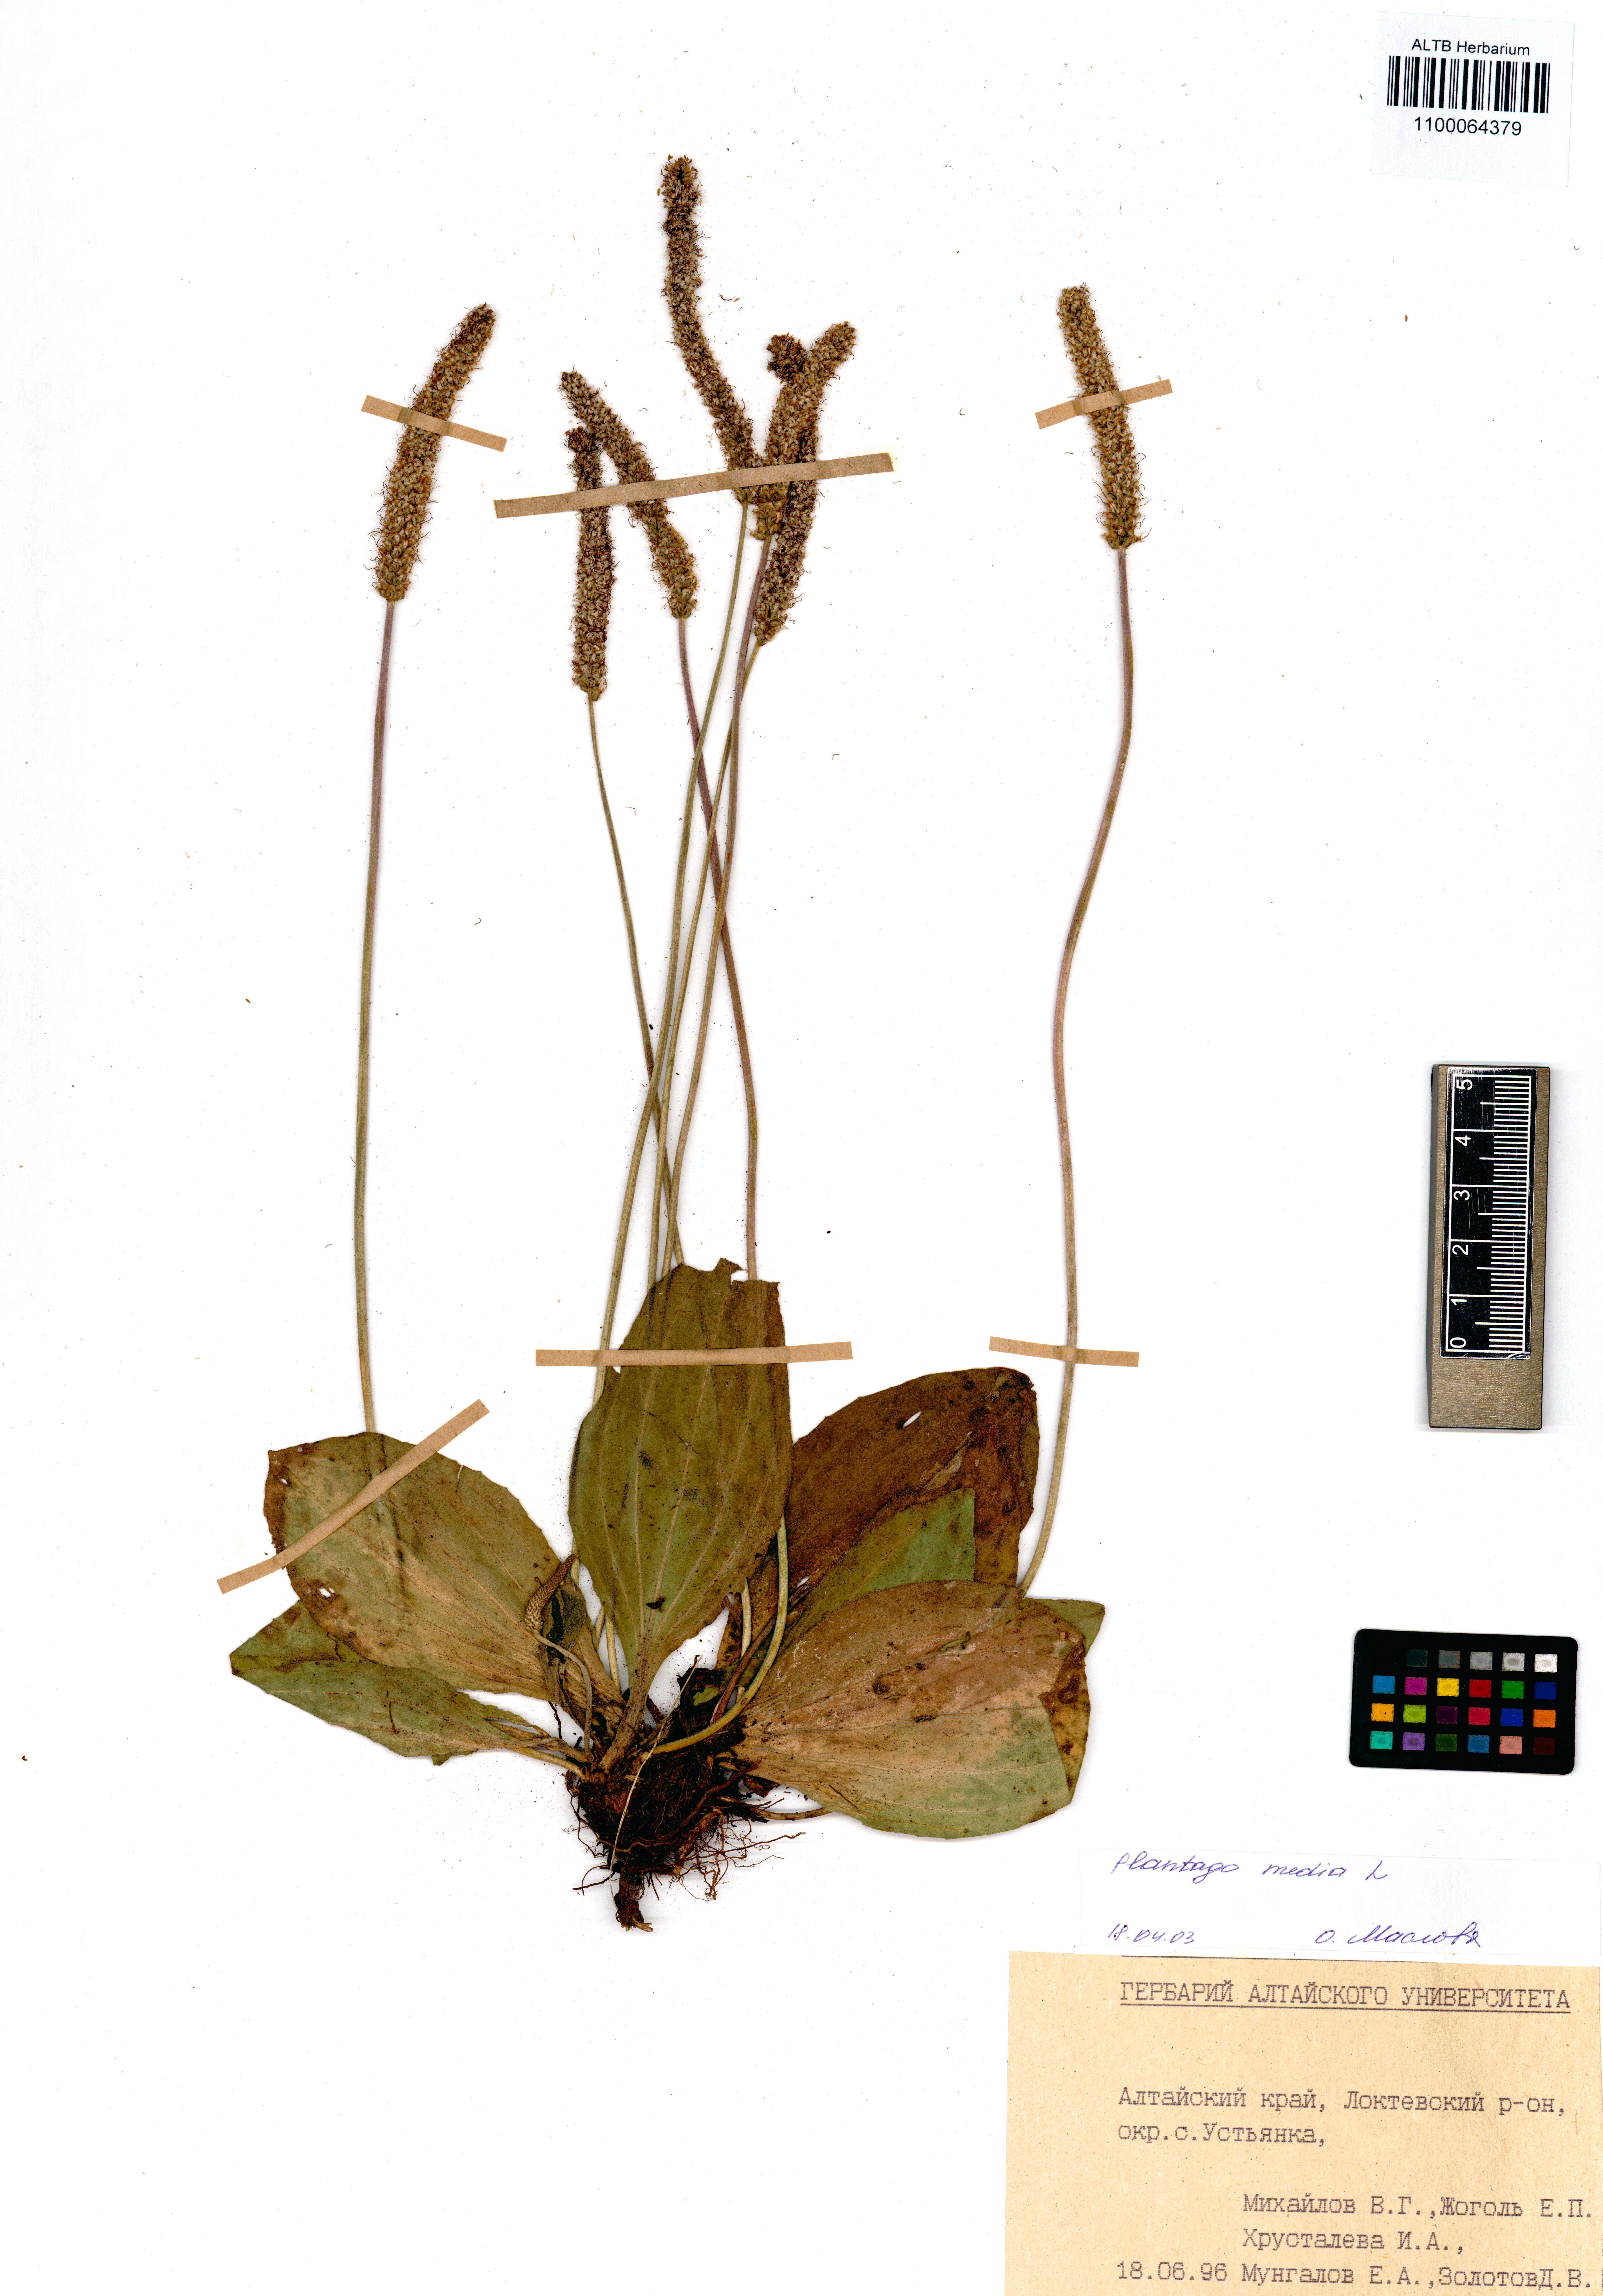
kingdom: Plantae
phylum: Tracheophyta
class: Magnoliopsida
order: Lamiales
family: Plantaginaceae
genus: Plantago
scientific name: Plantago media
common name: Hoary plantain
